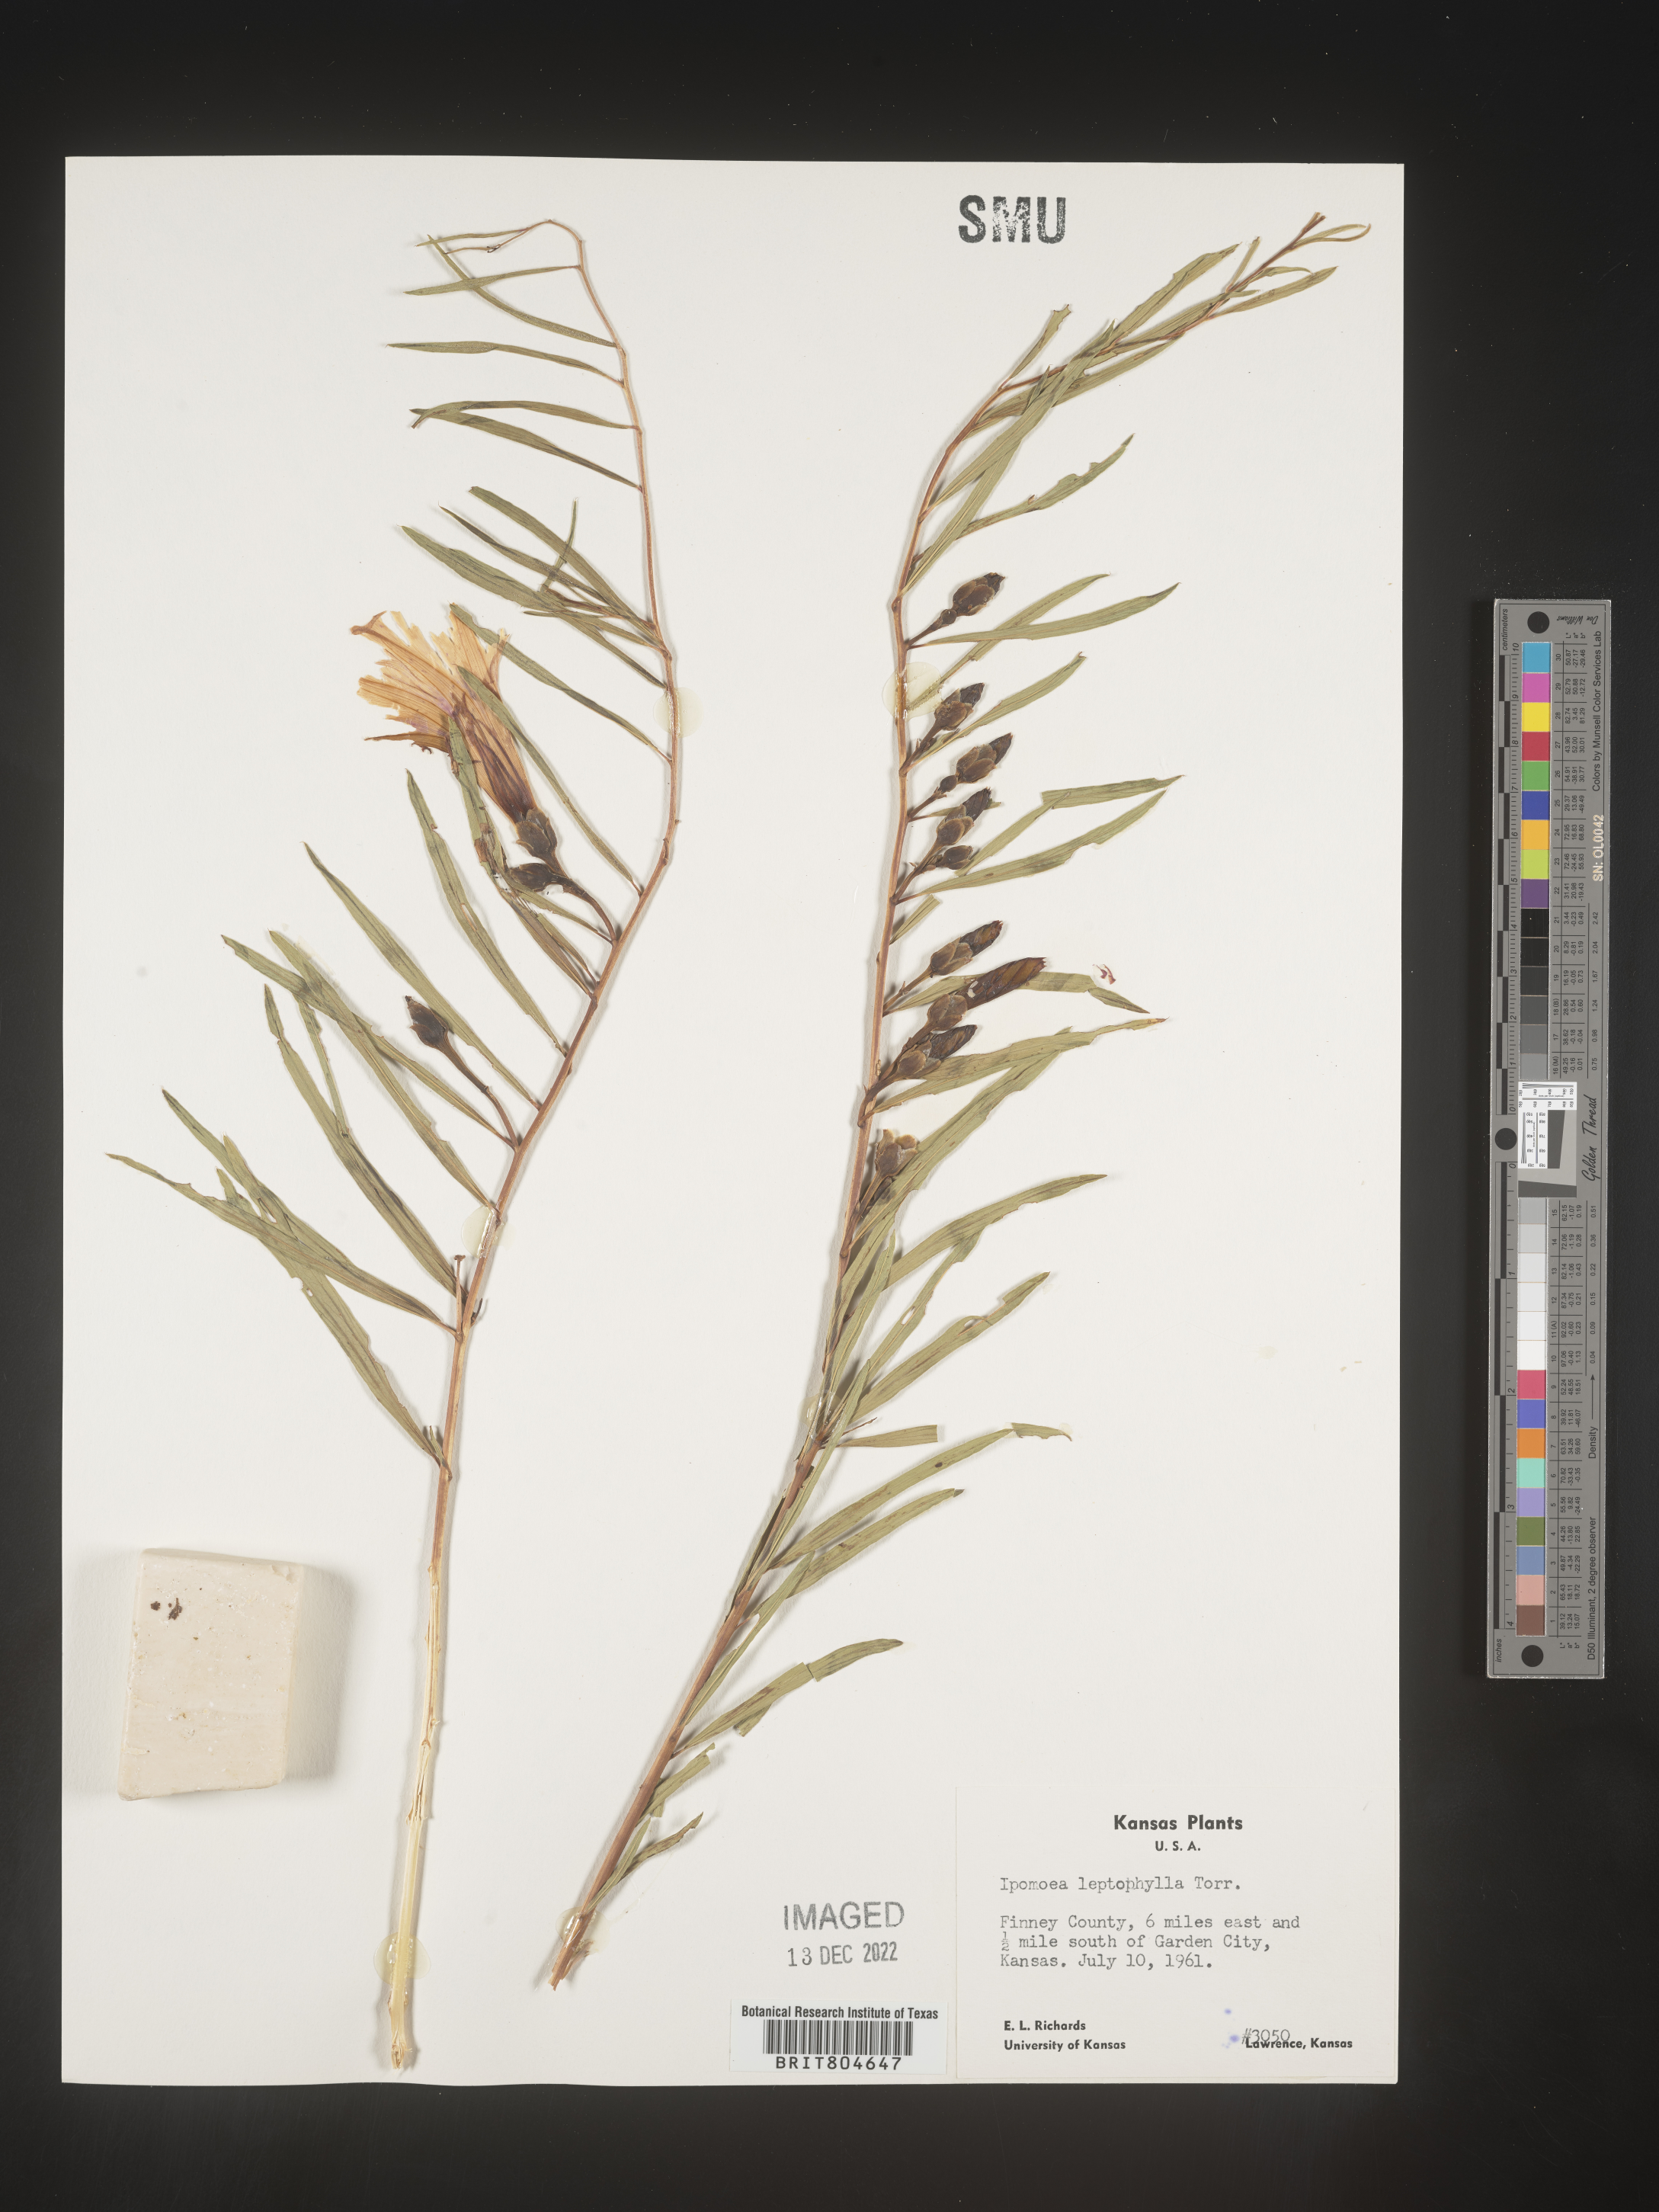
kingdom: Plantae
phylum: Tracheophyta
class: Magnoliopsida
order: Solanales
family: Convolvulaceae
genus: Ipomoea
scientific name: Ipomoea leptophylla
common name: Bush moonflower
